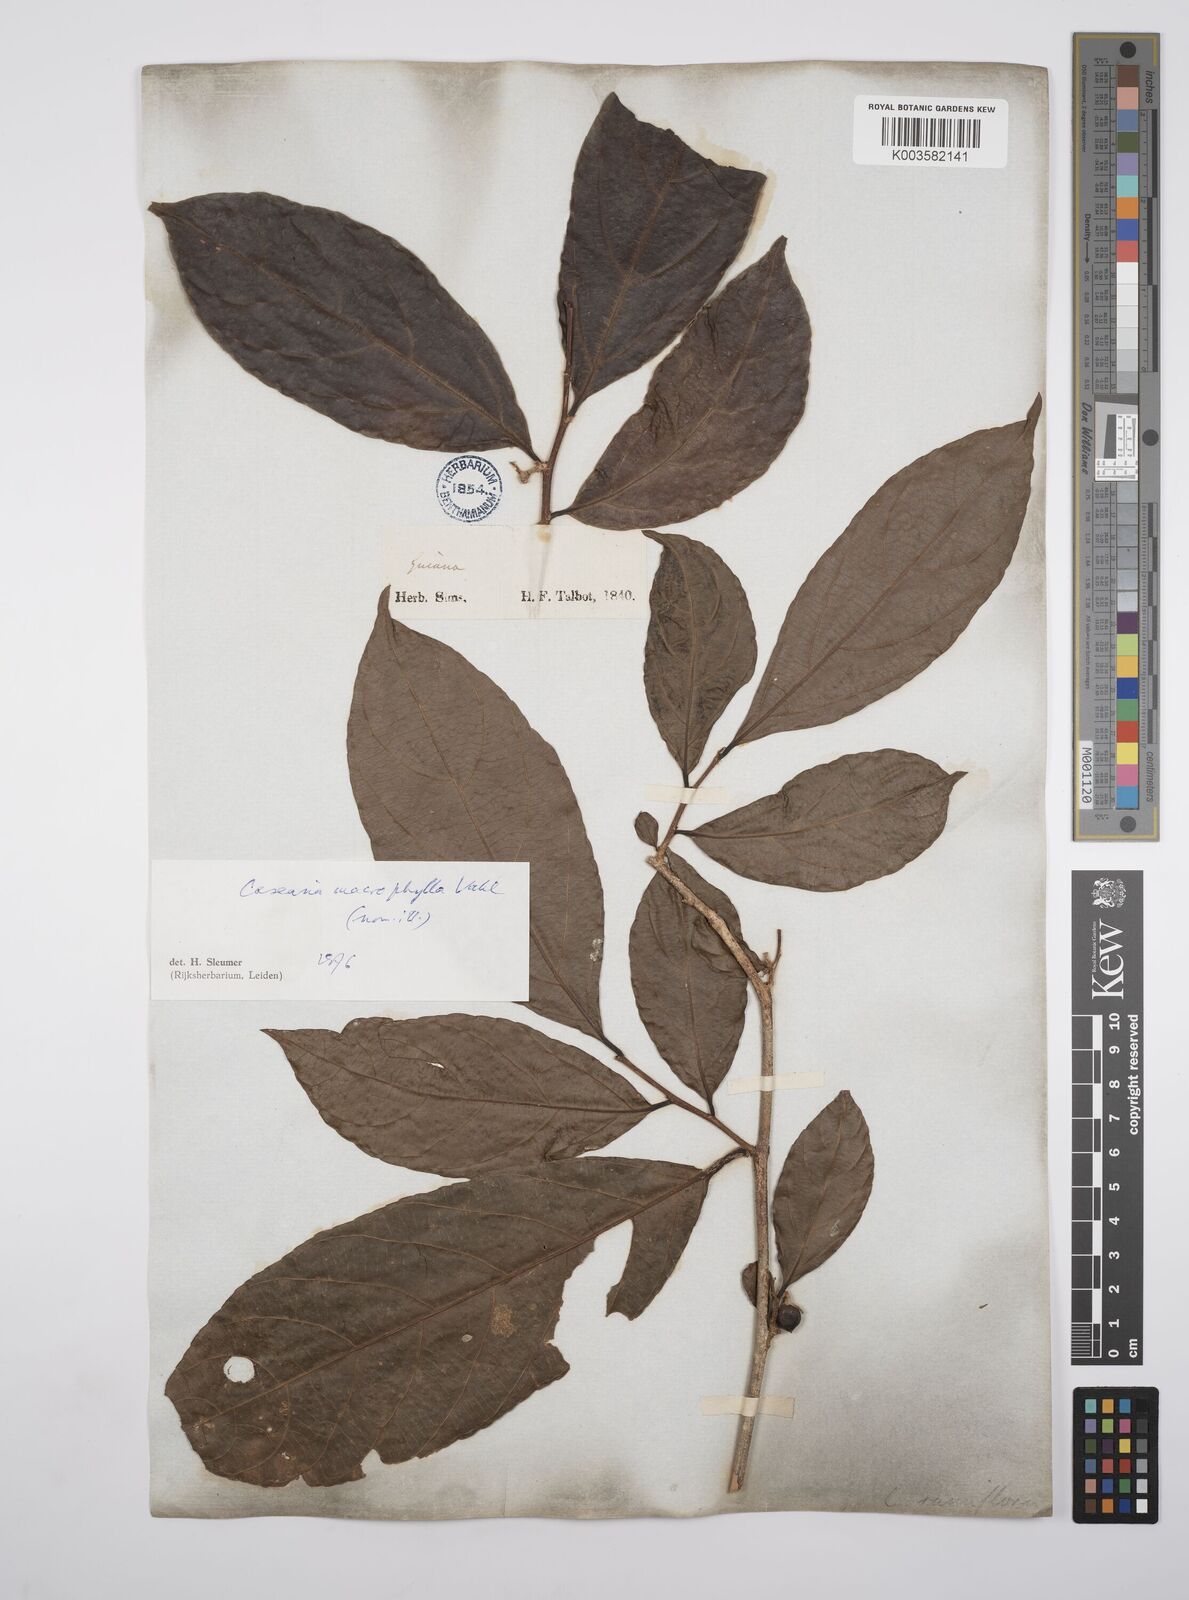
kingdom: Plantae
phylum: Tracheophyta
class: Magnoliopsida
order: Malpighiales
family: Salicaceae
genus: Casearia
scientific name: Casearia pitumba
